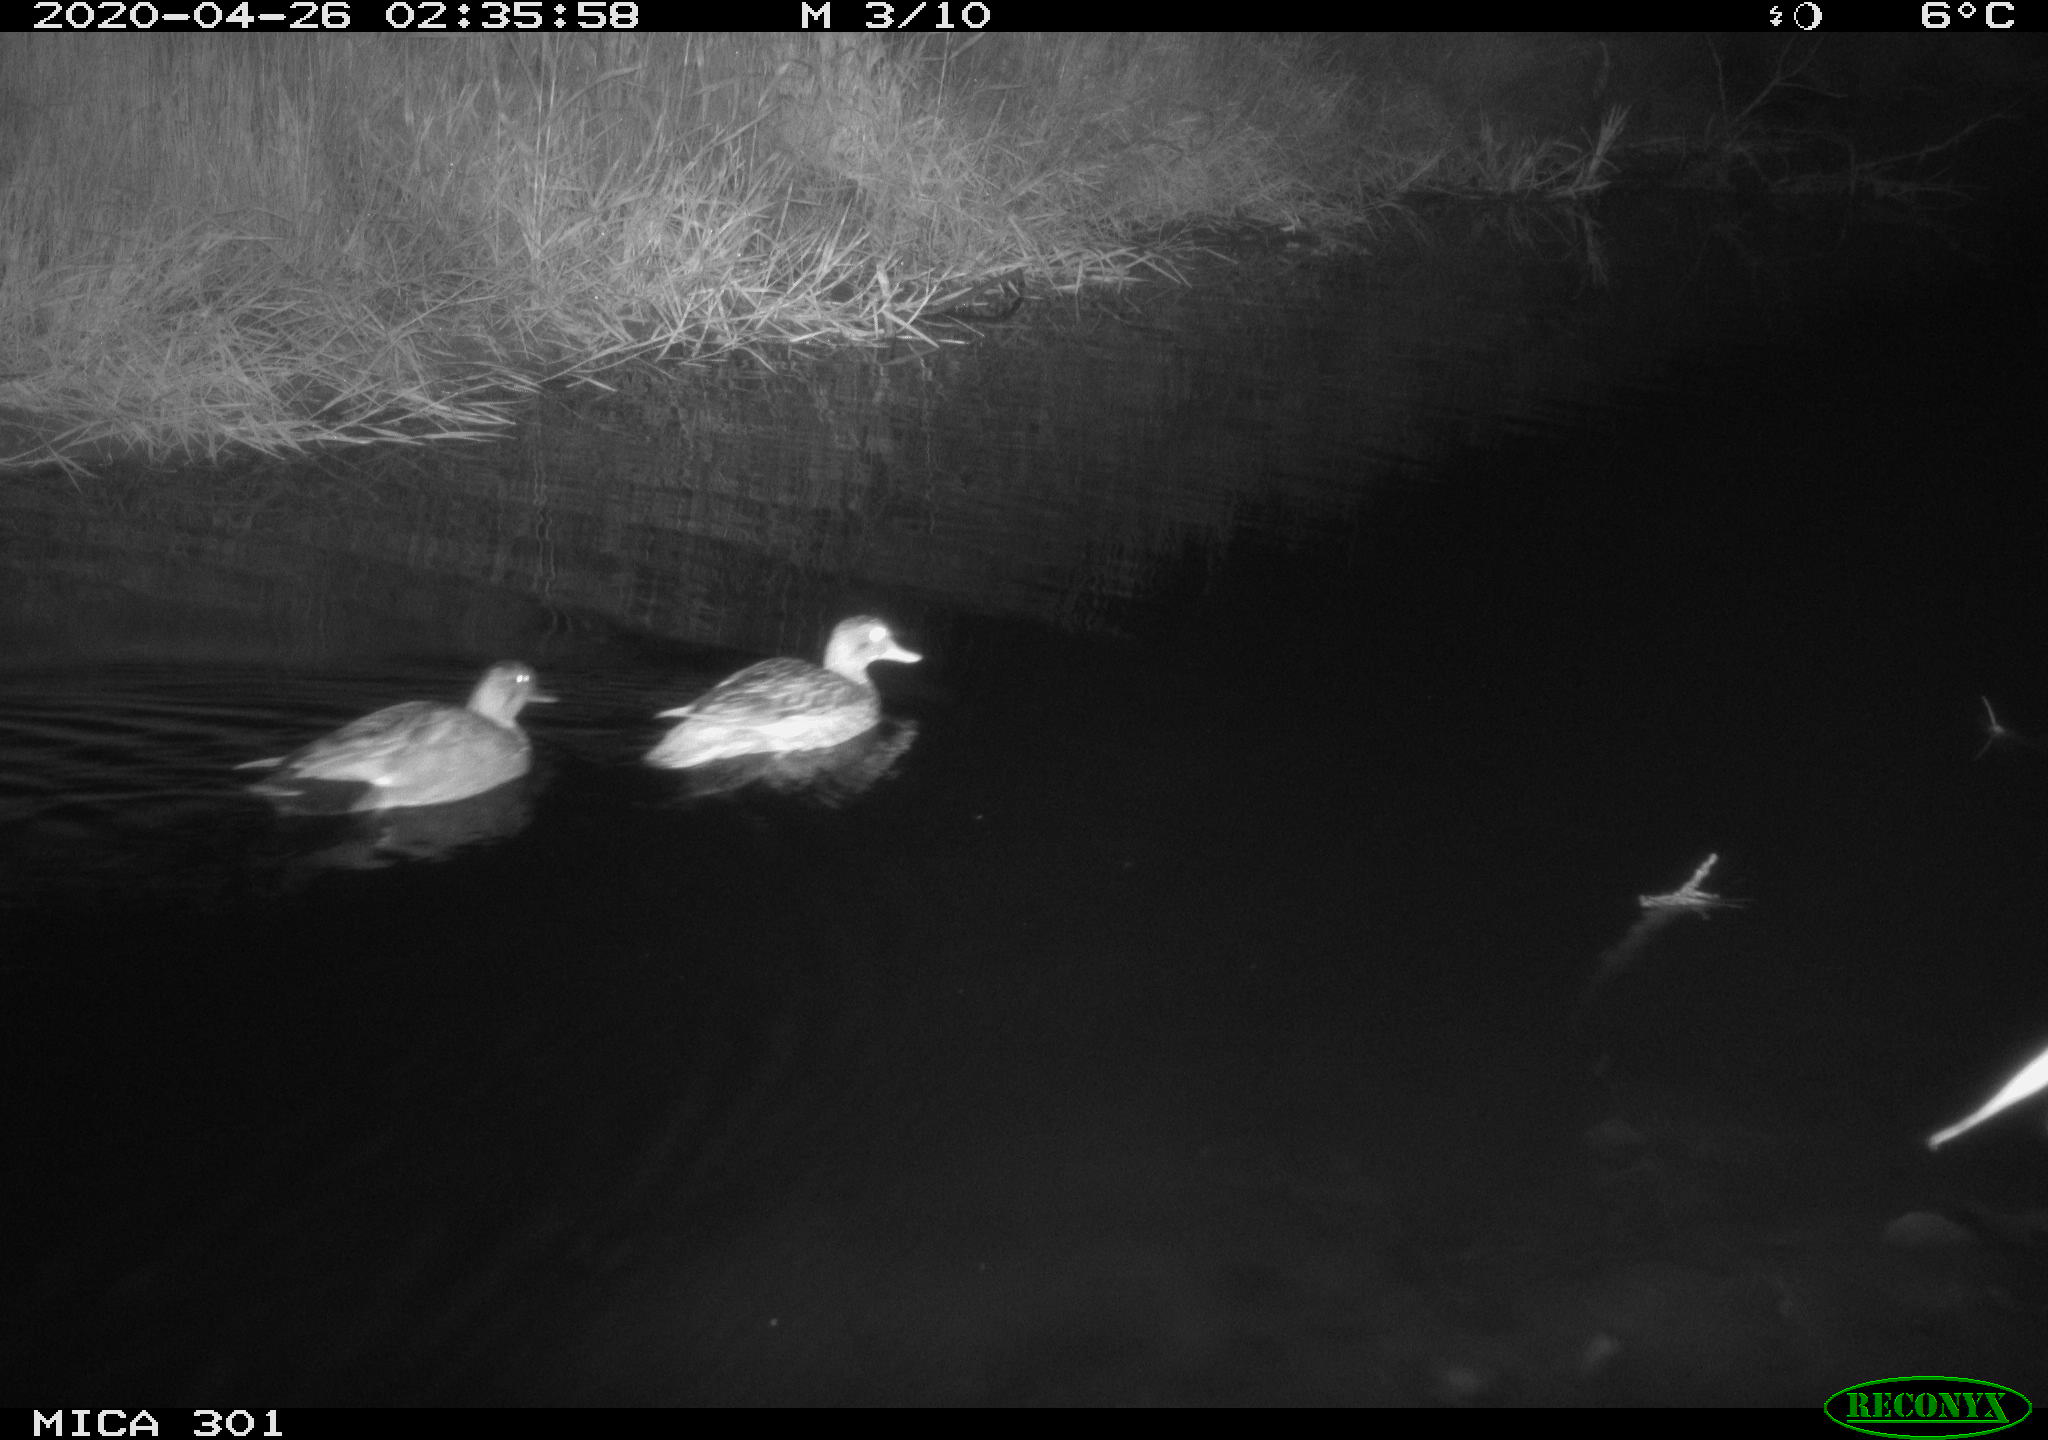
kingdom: Animalia
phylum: Chordata
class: Aves
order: Anseriformes
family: Anatidae
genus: Mareca
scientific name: Mareca strepera
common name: Gadwall
